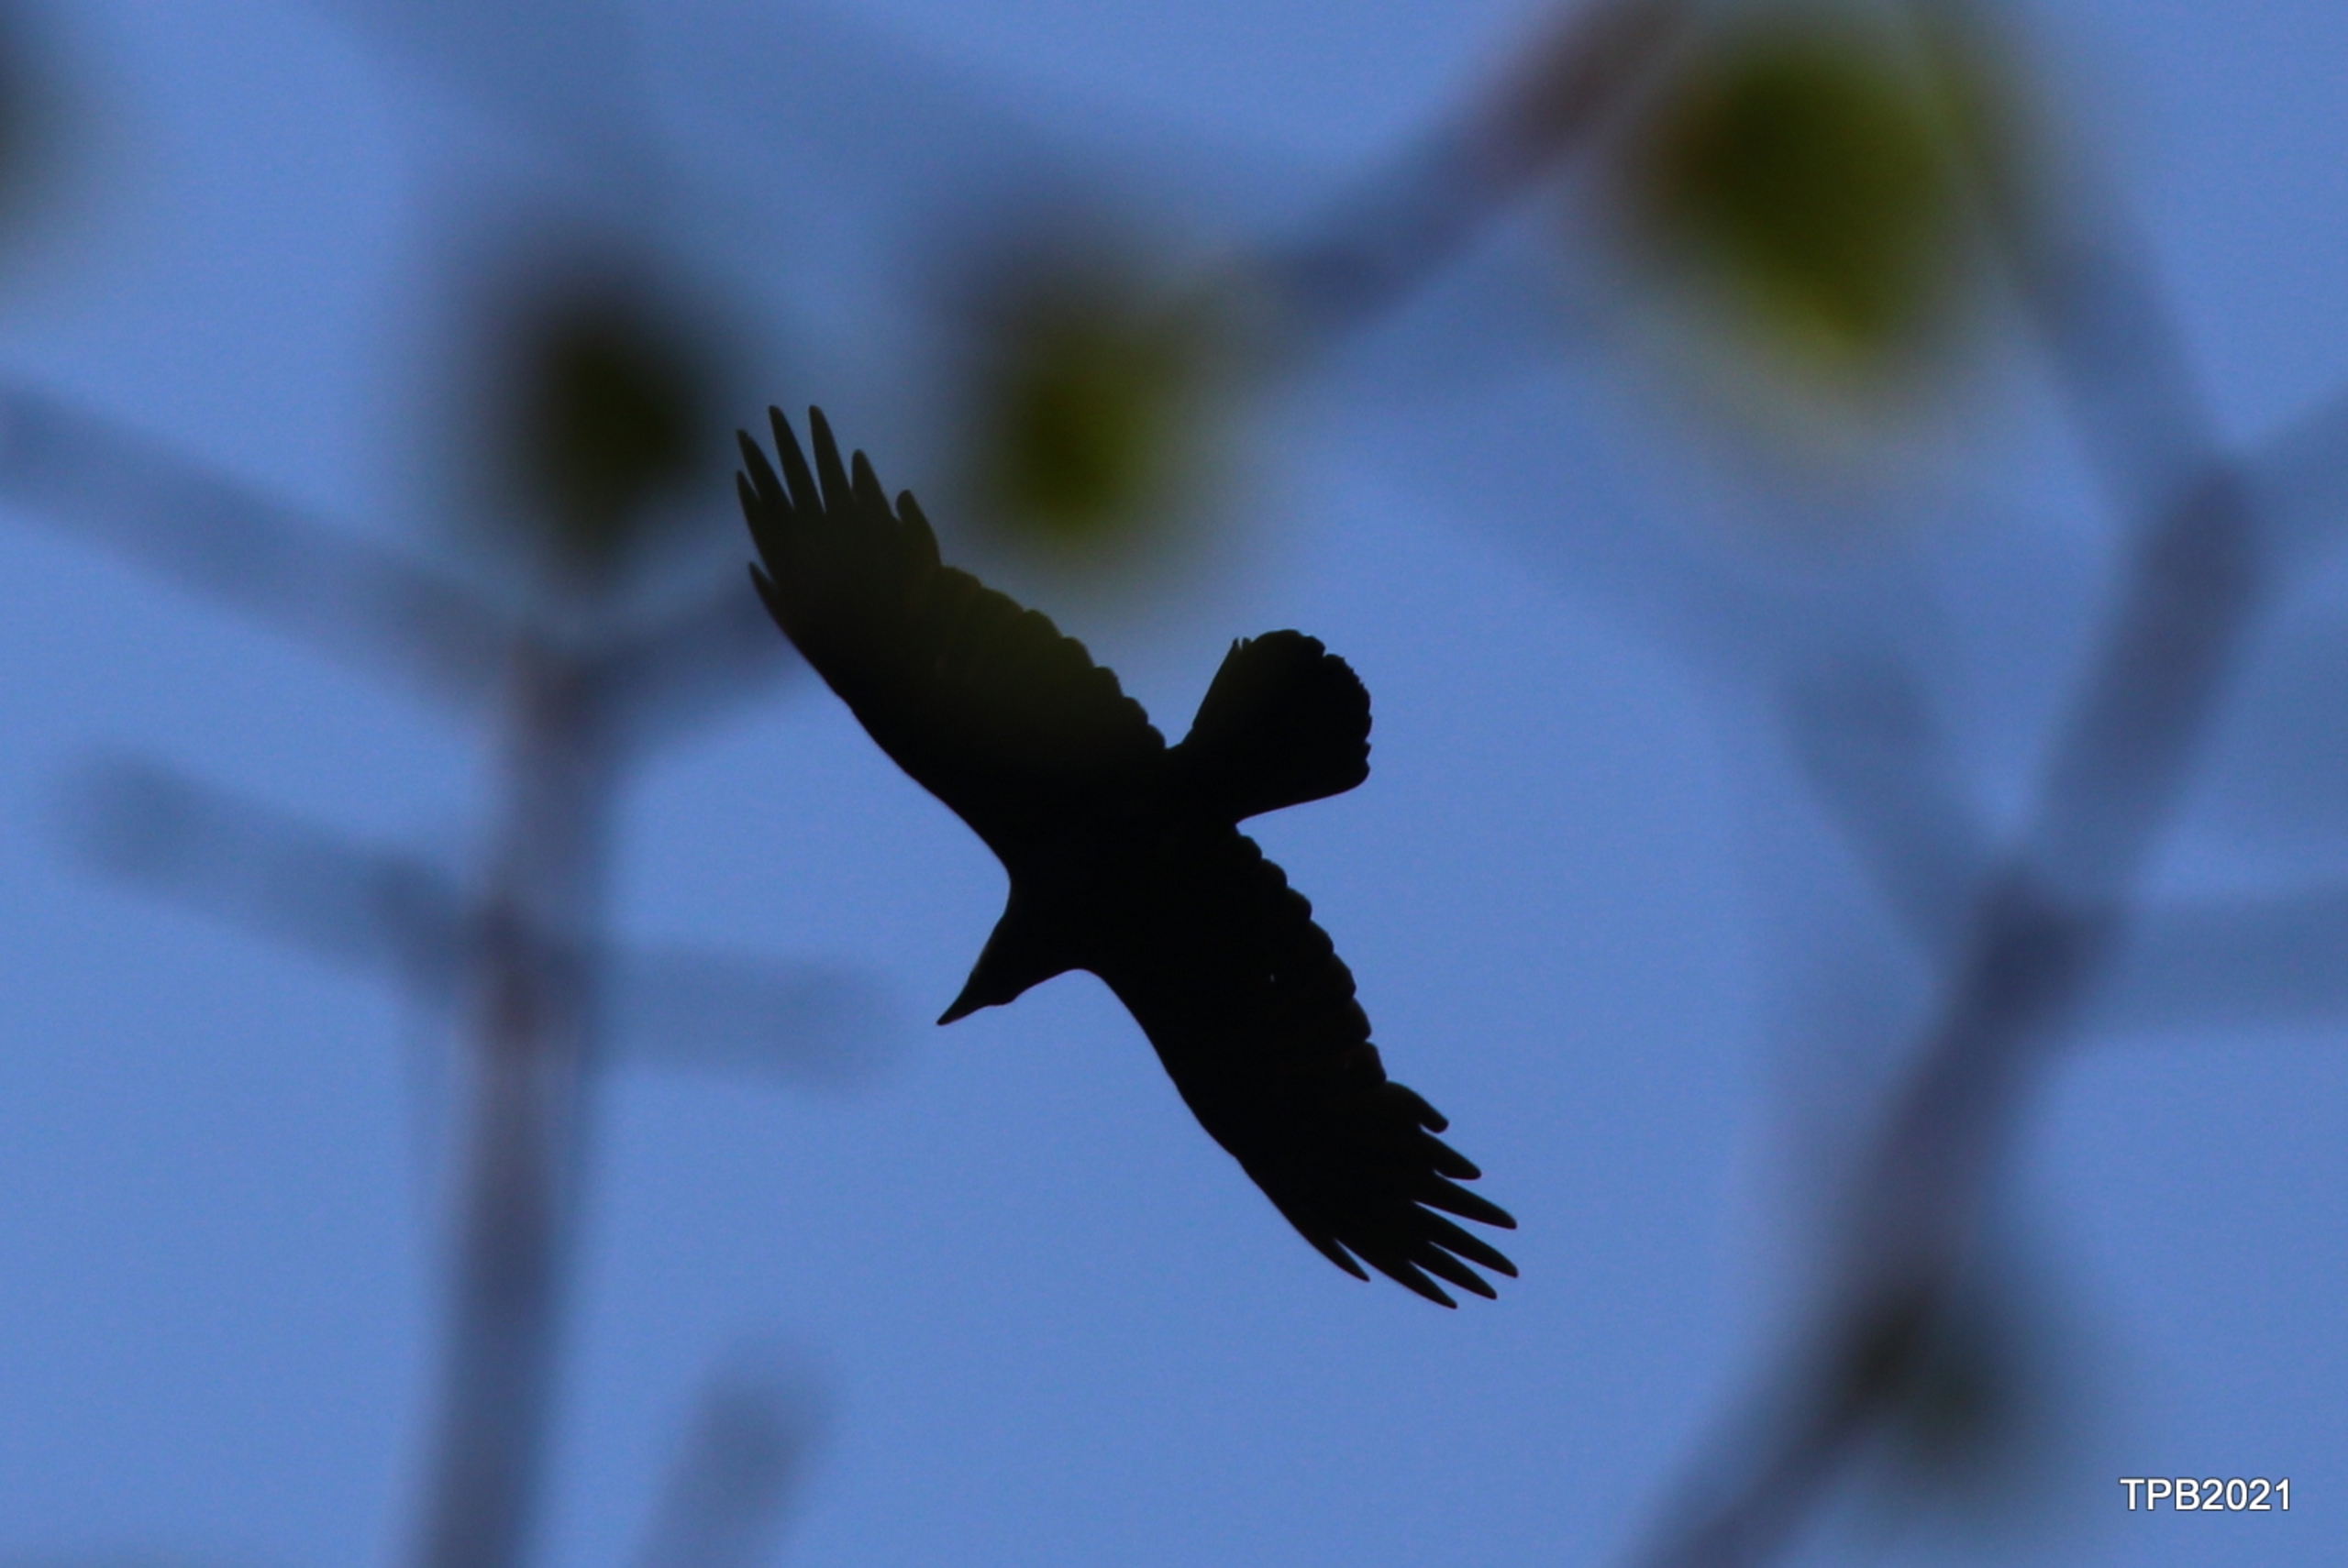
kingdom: Animalia
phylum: Chordata
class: Aves
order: Passeriformes
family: Corvidae
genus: Corvus
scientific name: Corvus corax
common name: Ravn
